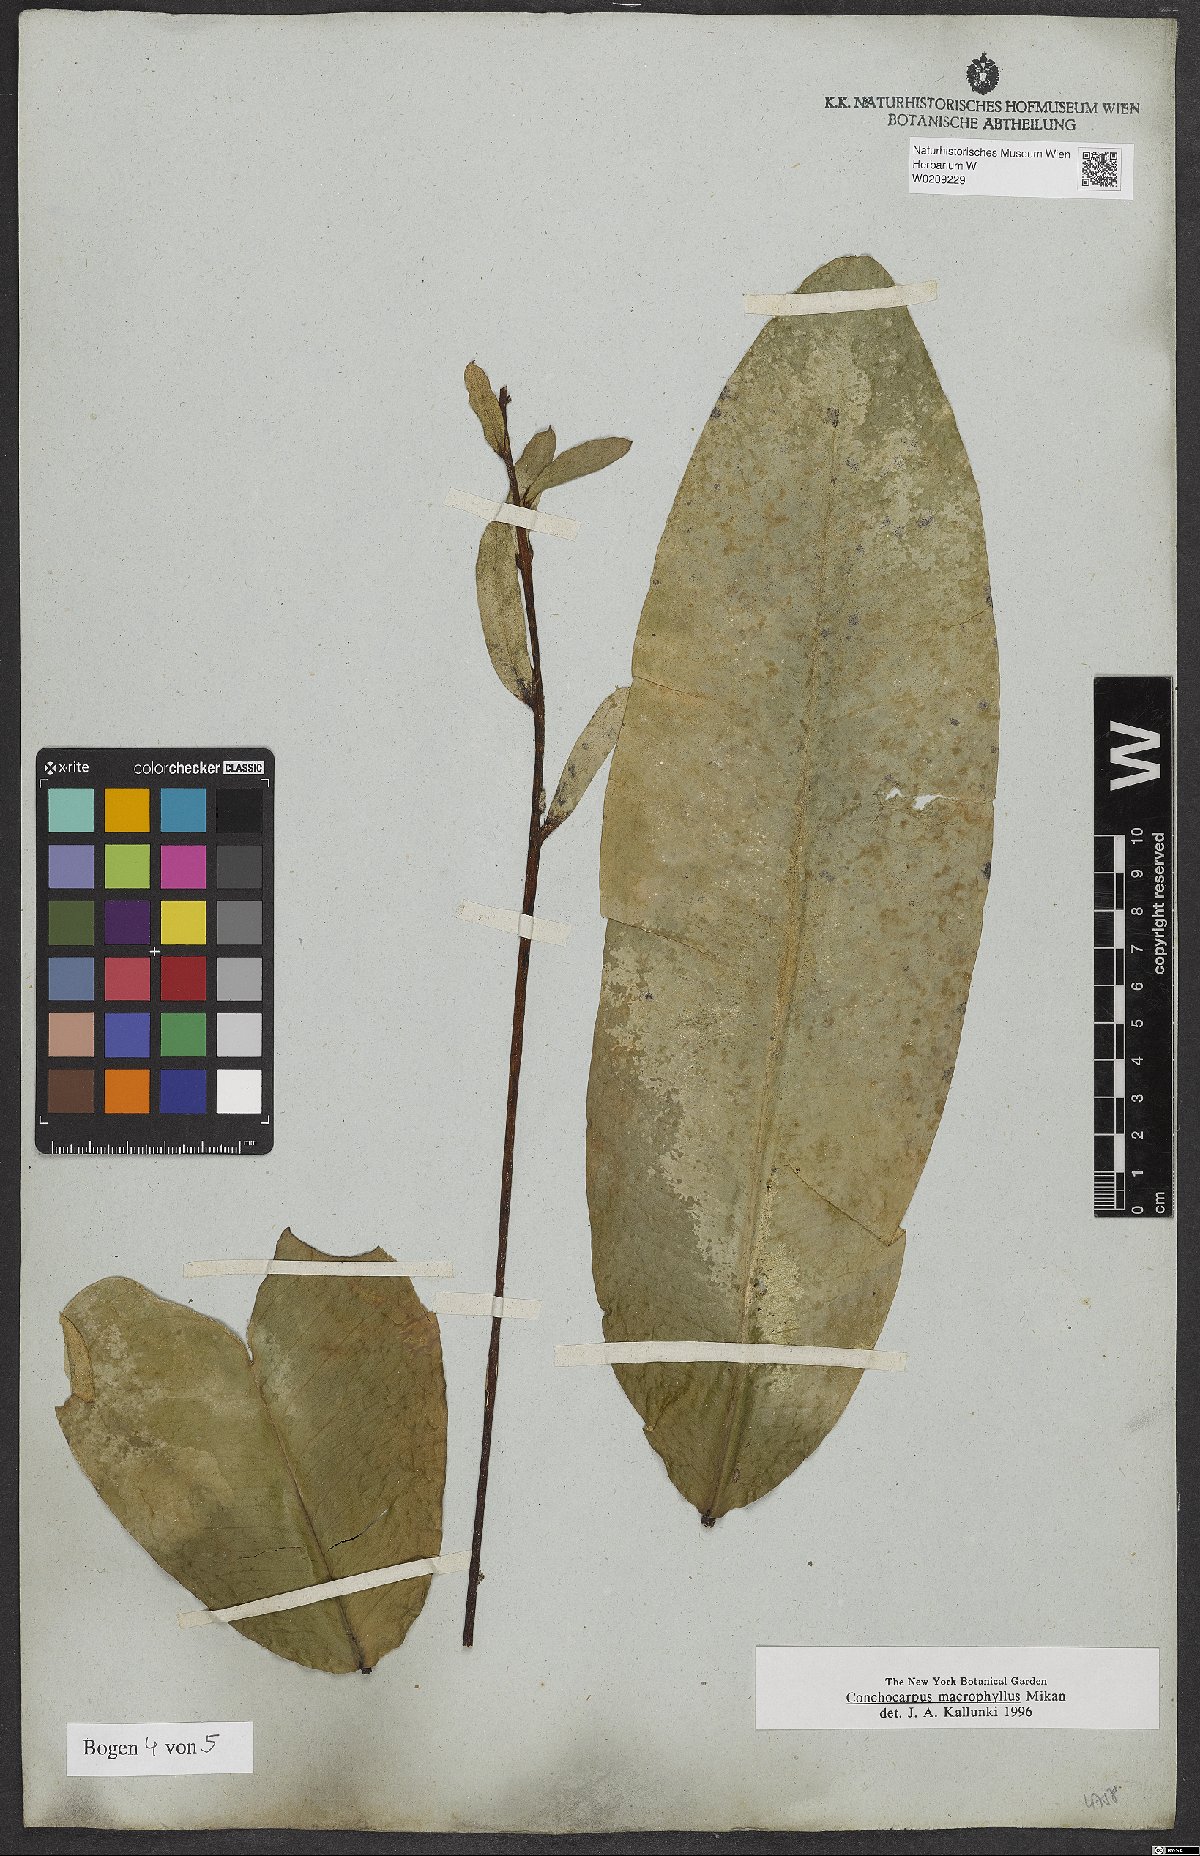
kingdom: Plantae
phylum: Tracheophyta
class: Magnoliopsida
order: Sapindales
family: Rutaceae
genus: Conchocarpus
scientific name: Conchocarpus macrophyllus
